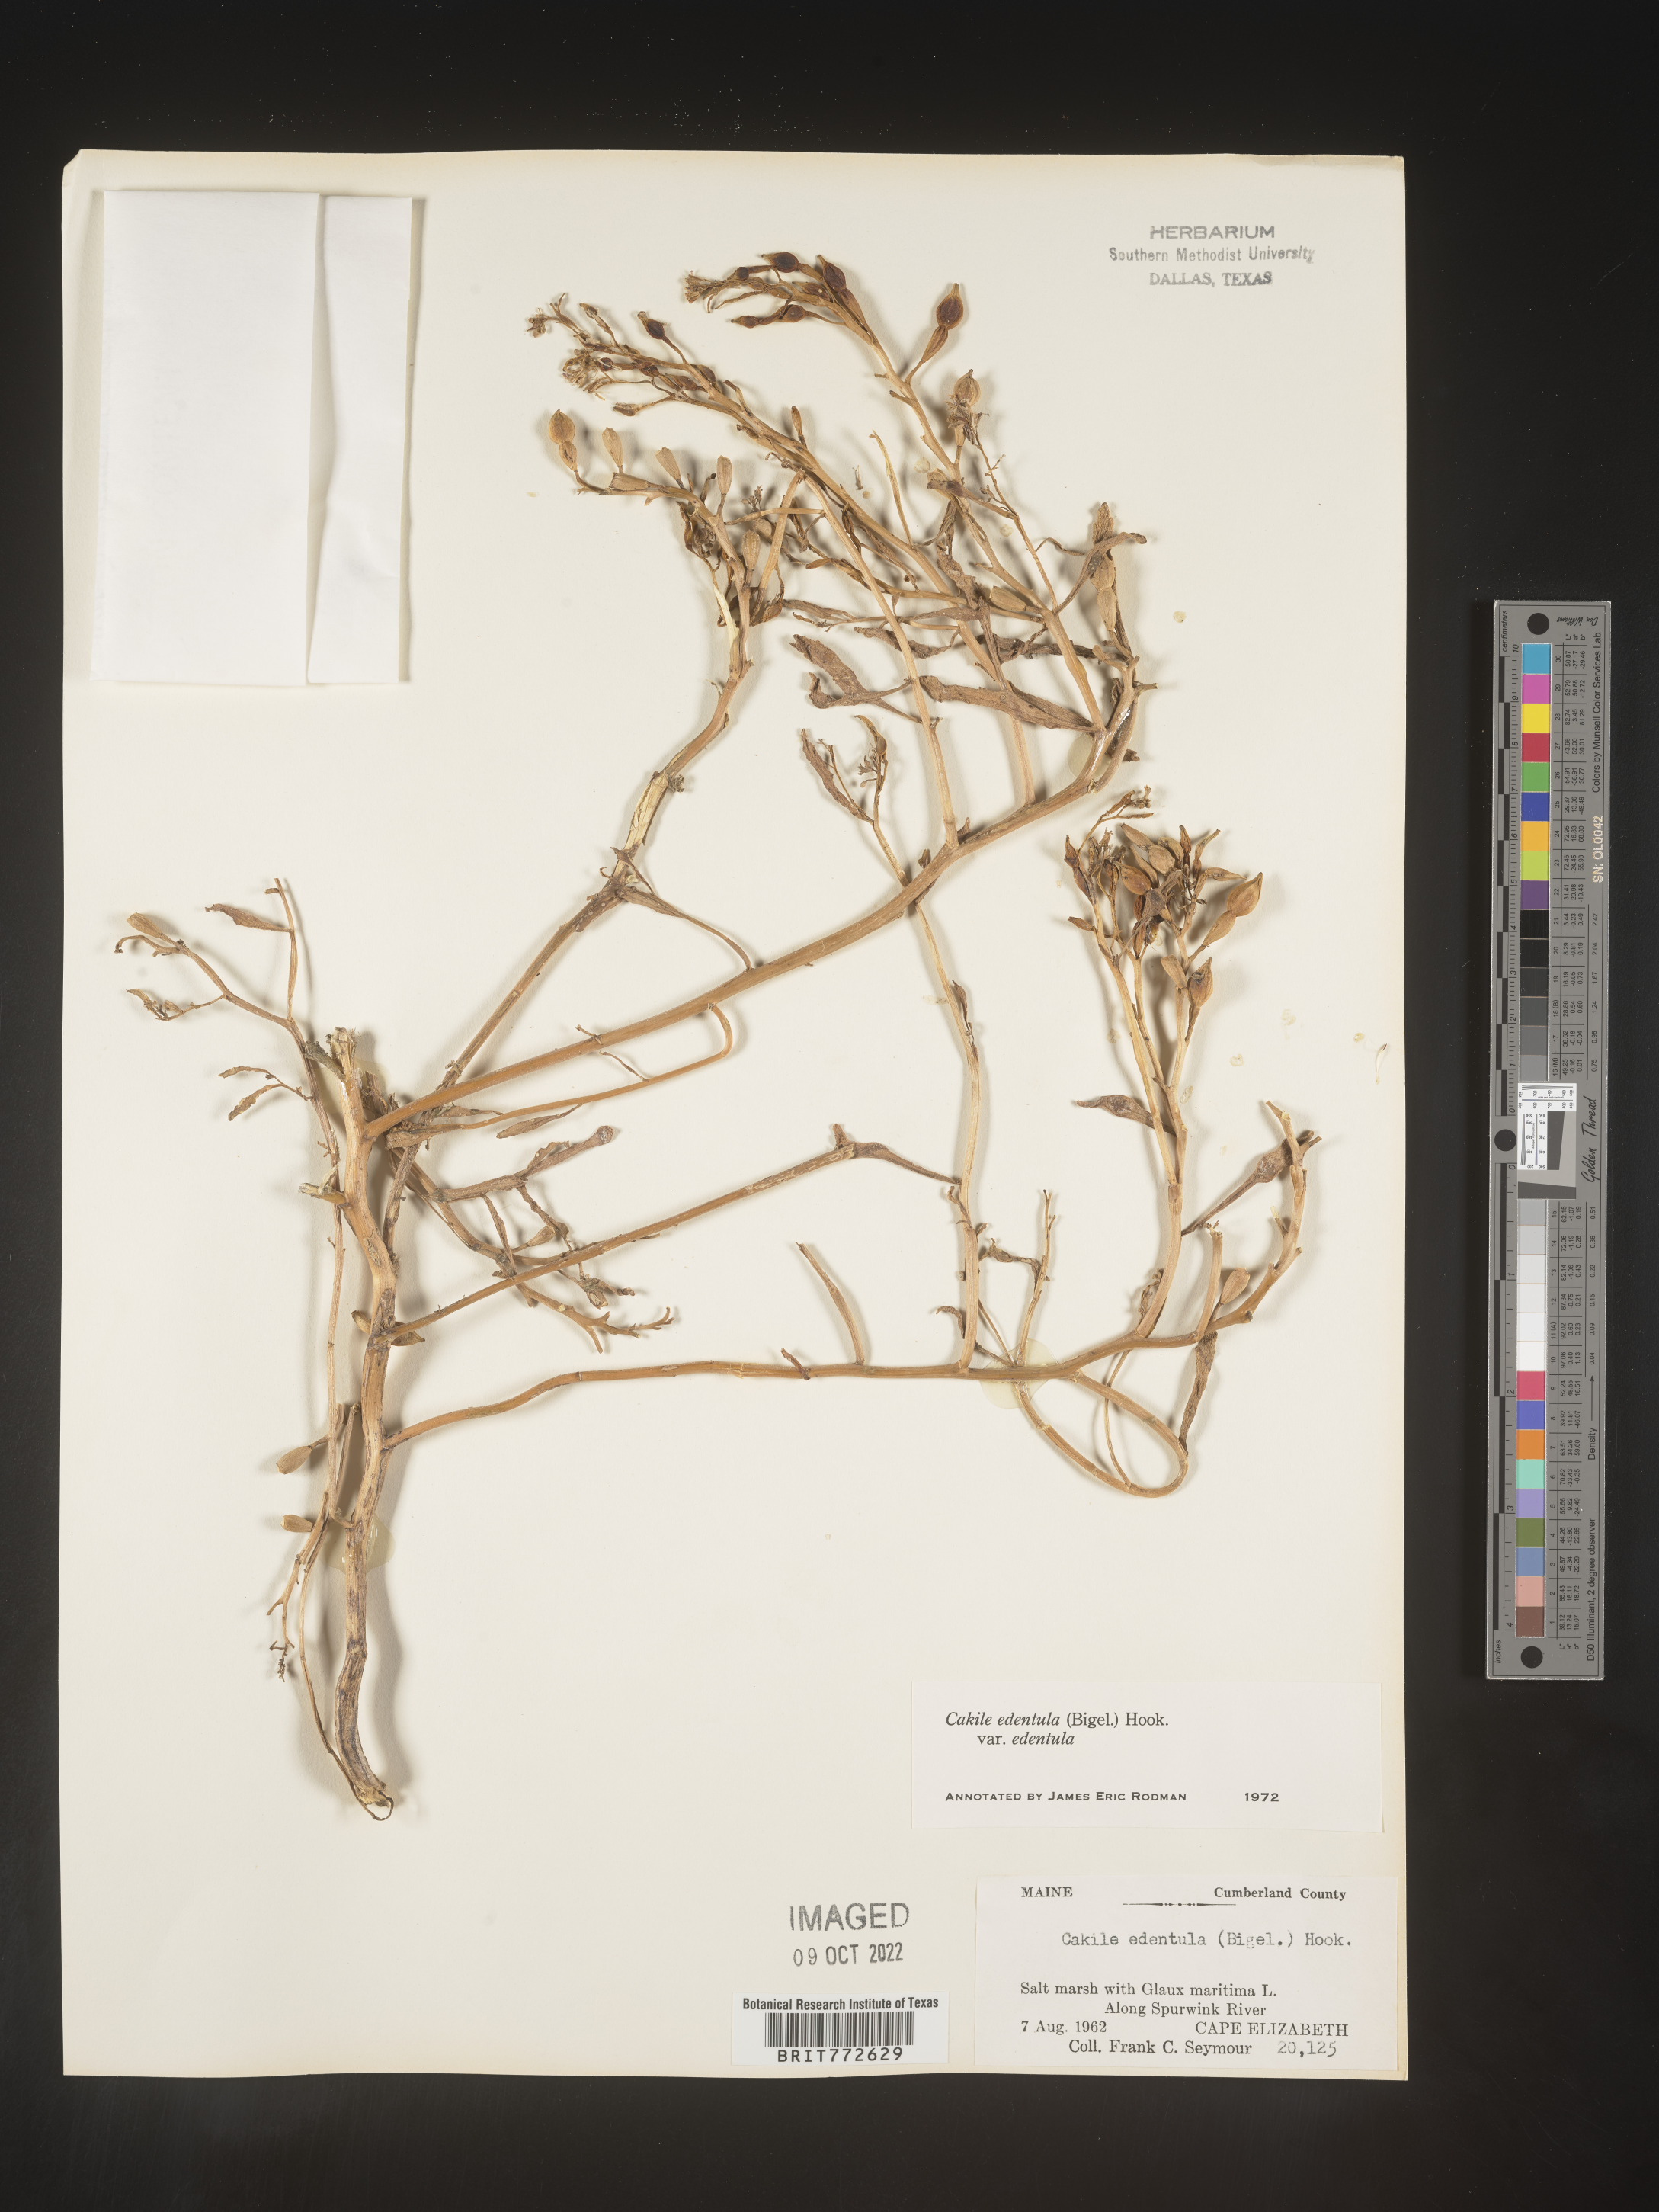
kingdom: Plantae
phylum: Tracheophyta
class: Magnoliopsida
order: Brassicales
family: Brassicaceae
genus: Cakile
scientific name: Cakile edentula
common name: American sea rocket
